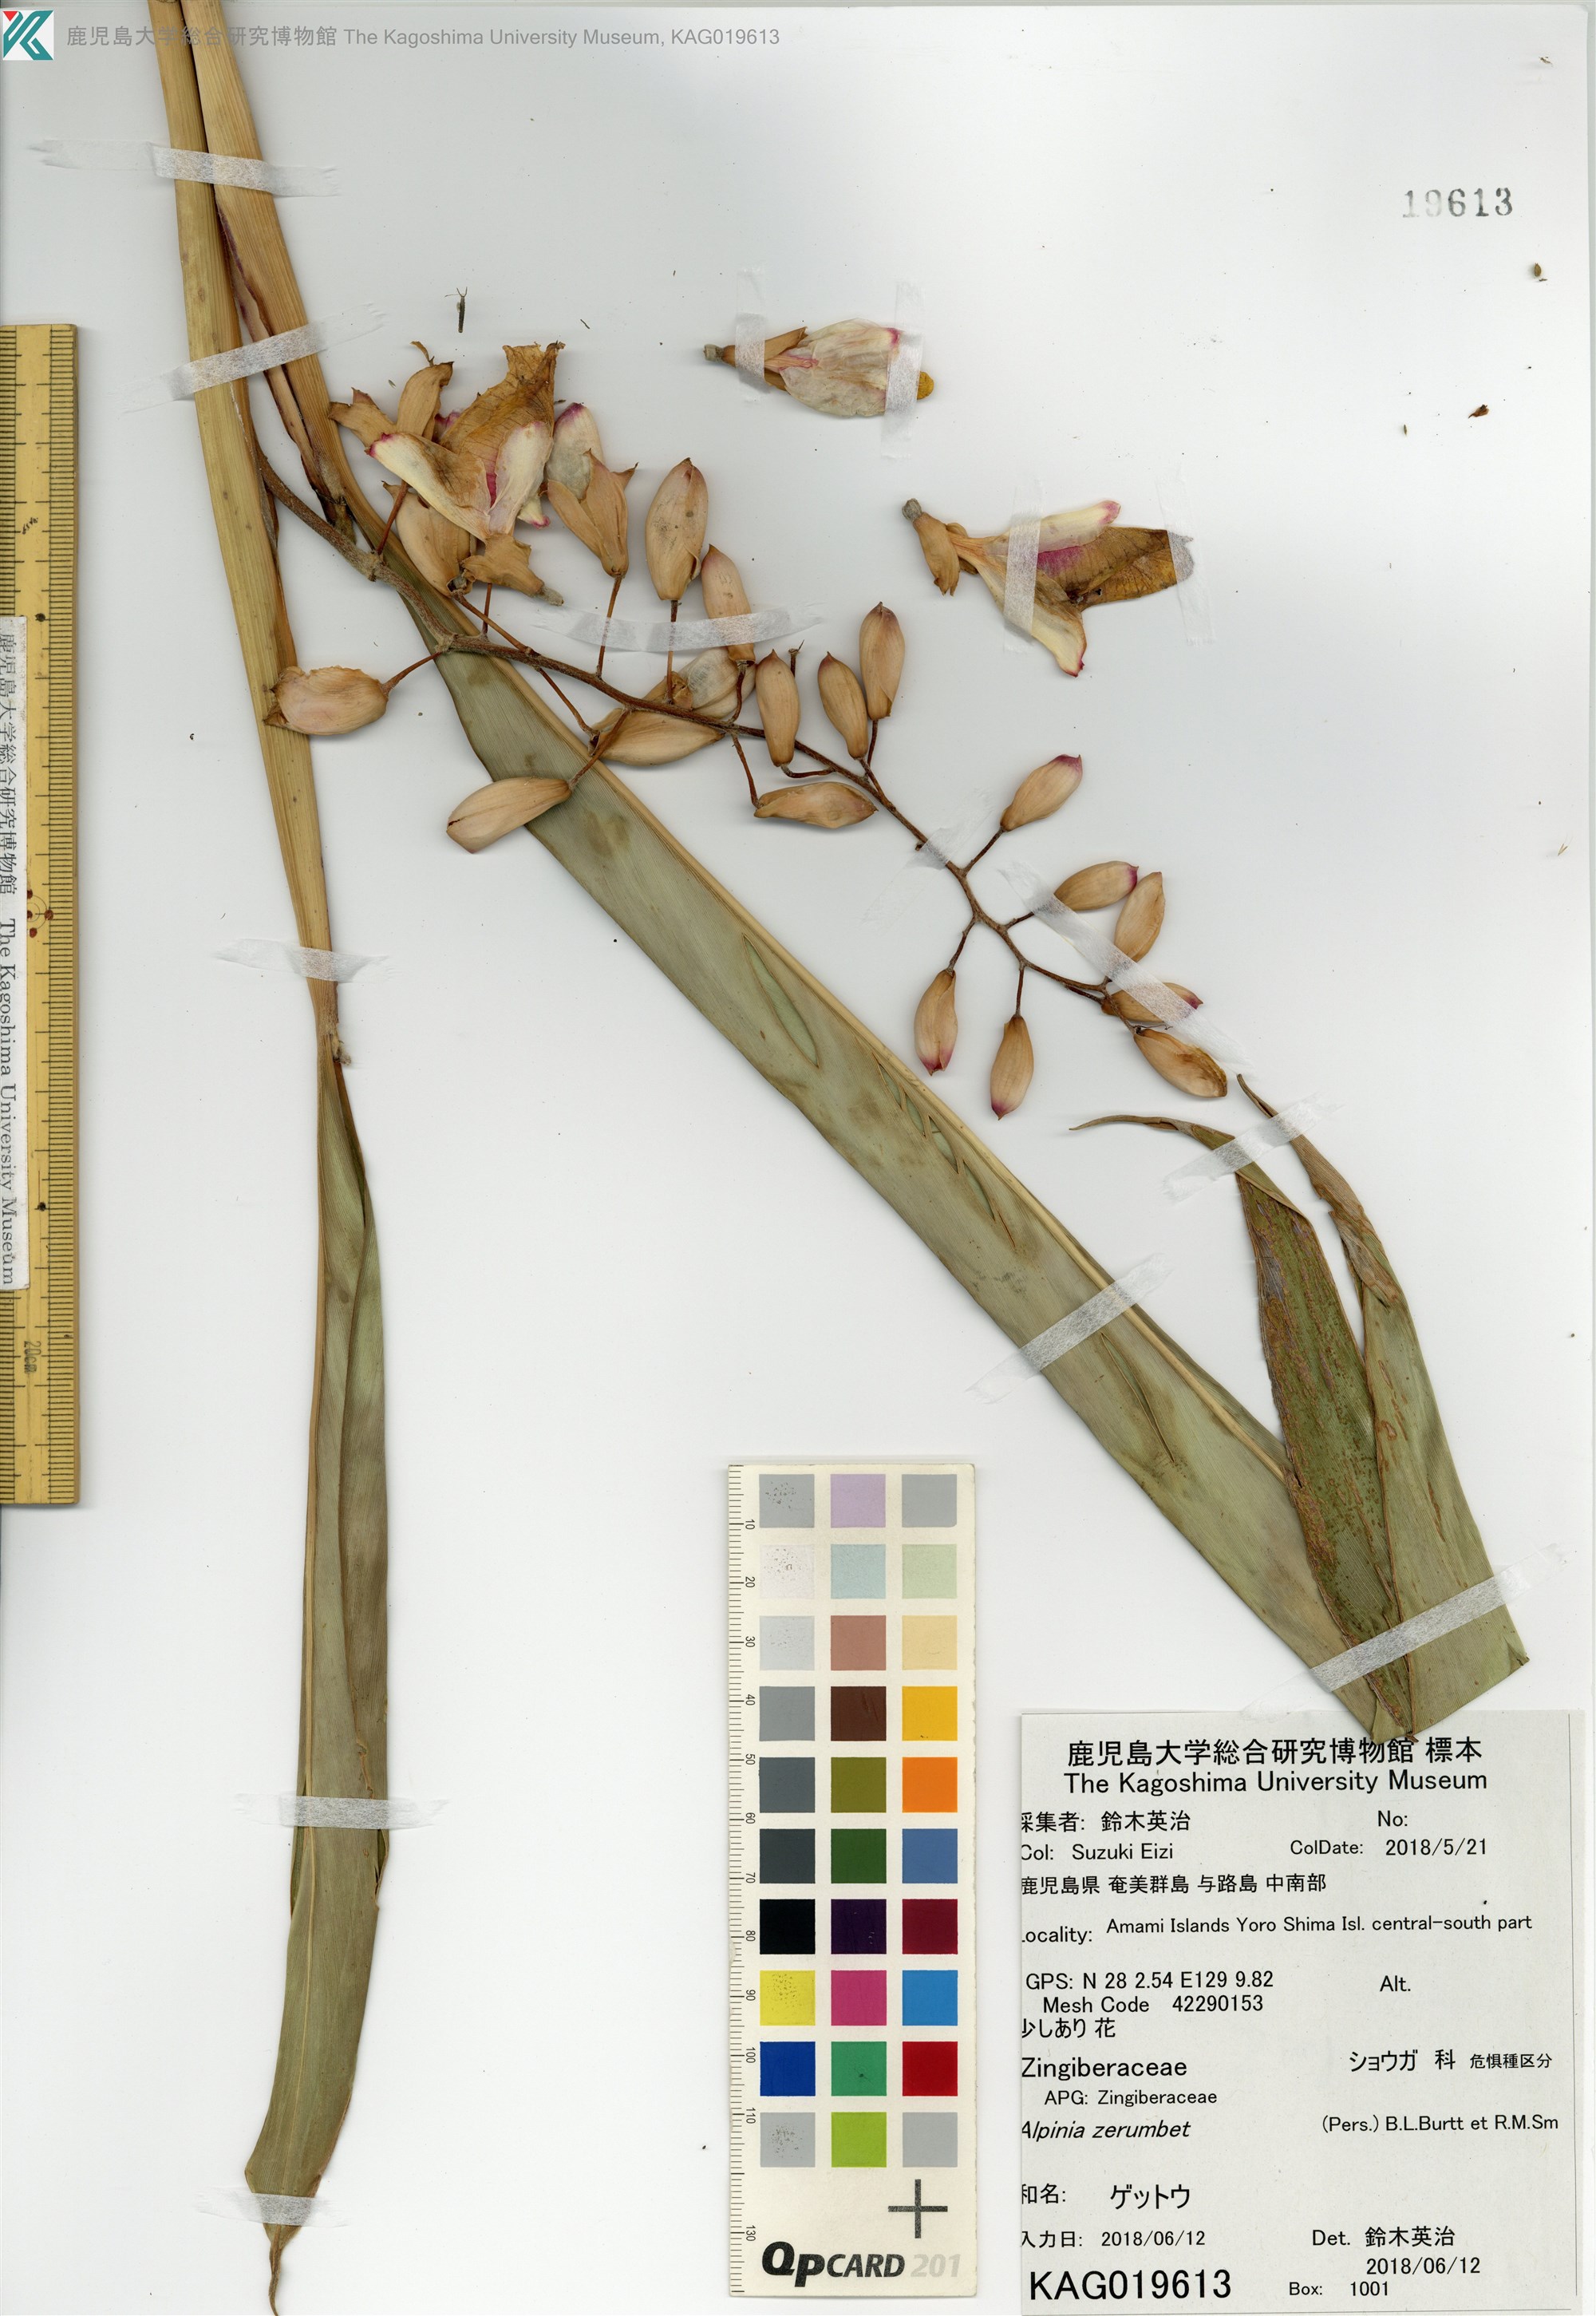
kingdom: Plantae
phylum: Tracheophyta
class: Liliopsida
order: Zingiberales
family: Zingiberaceae
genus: Alpinia
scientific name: Alpinia zerumbet
